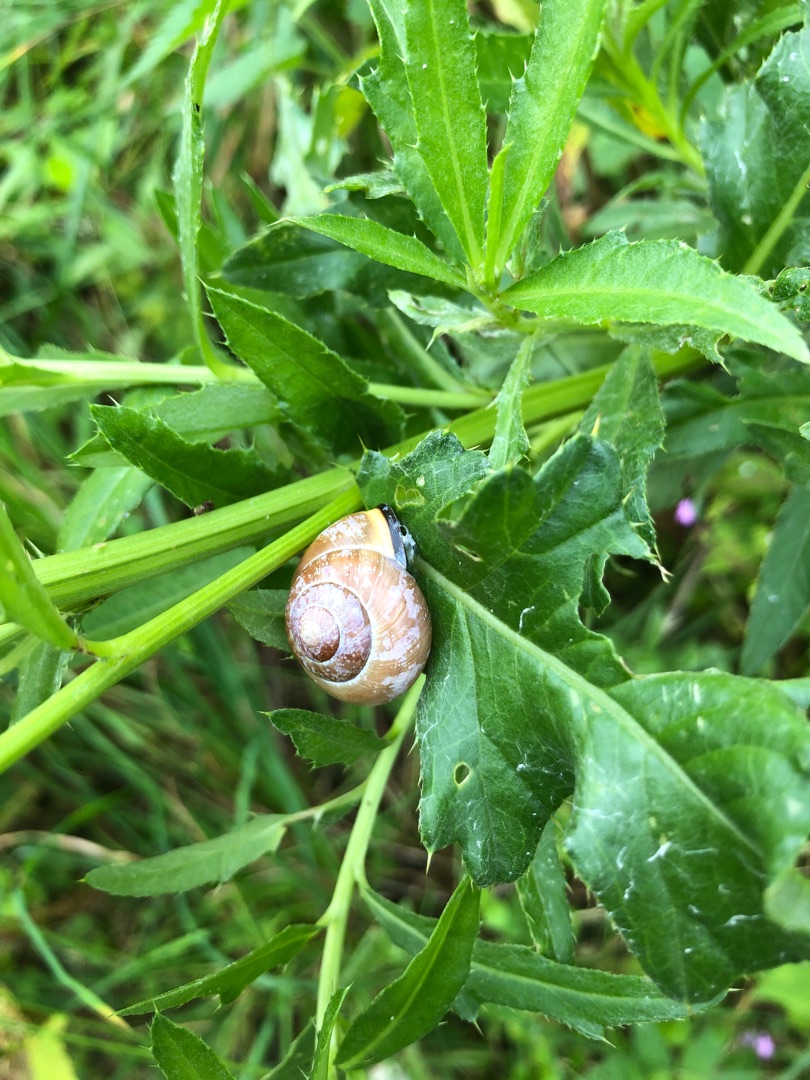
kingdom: Animalia
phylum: Mollusca
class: Gastropoda
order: Stylommatophora
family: Helicidae
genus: Cepaea
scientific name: Cepaea nemoralis
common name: Lundsnegl
